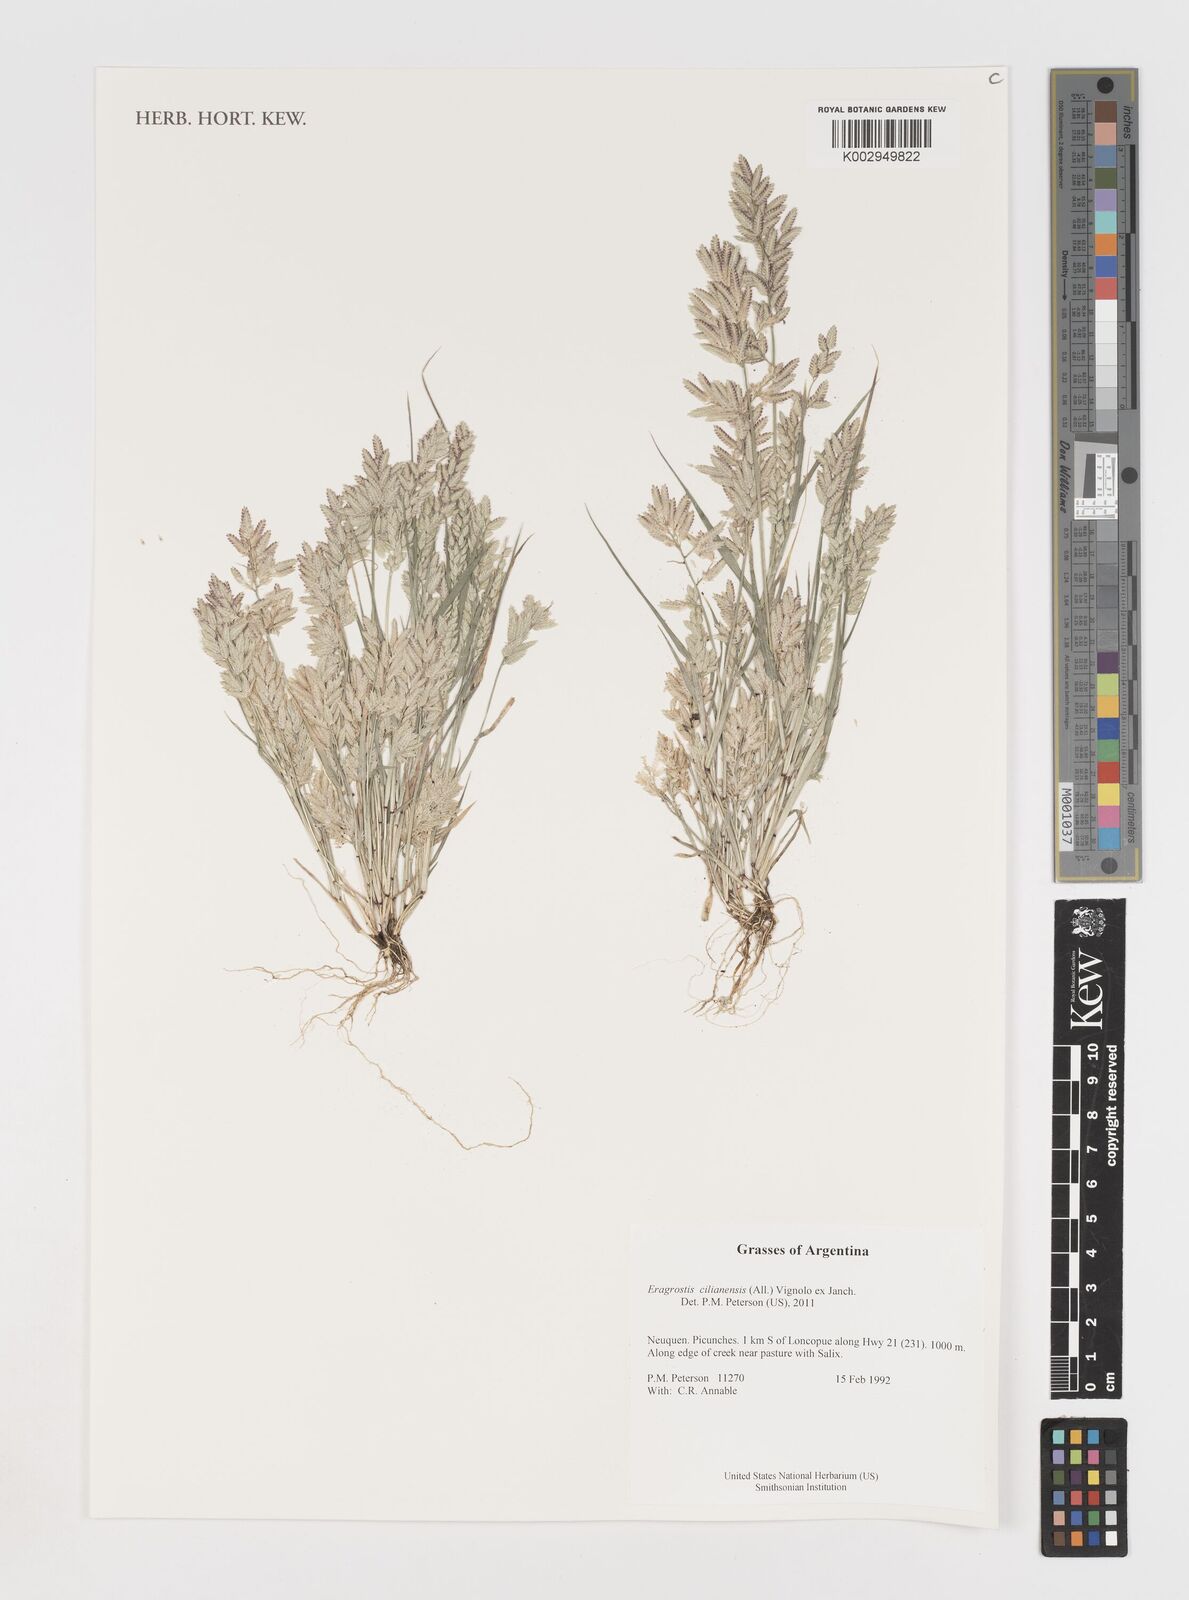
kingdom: Plantae
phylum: Tracheophyta
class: Liliopsida
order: Poales
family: Poaceae
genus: Eragrostis
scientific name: Eragrostis cilianensis
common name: Stinkgrass
